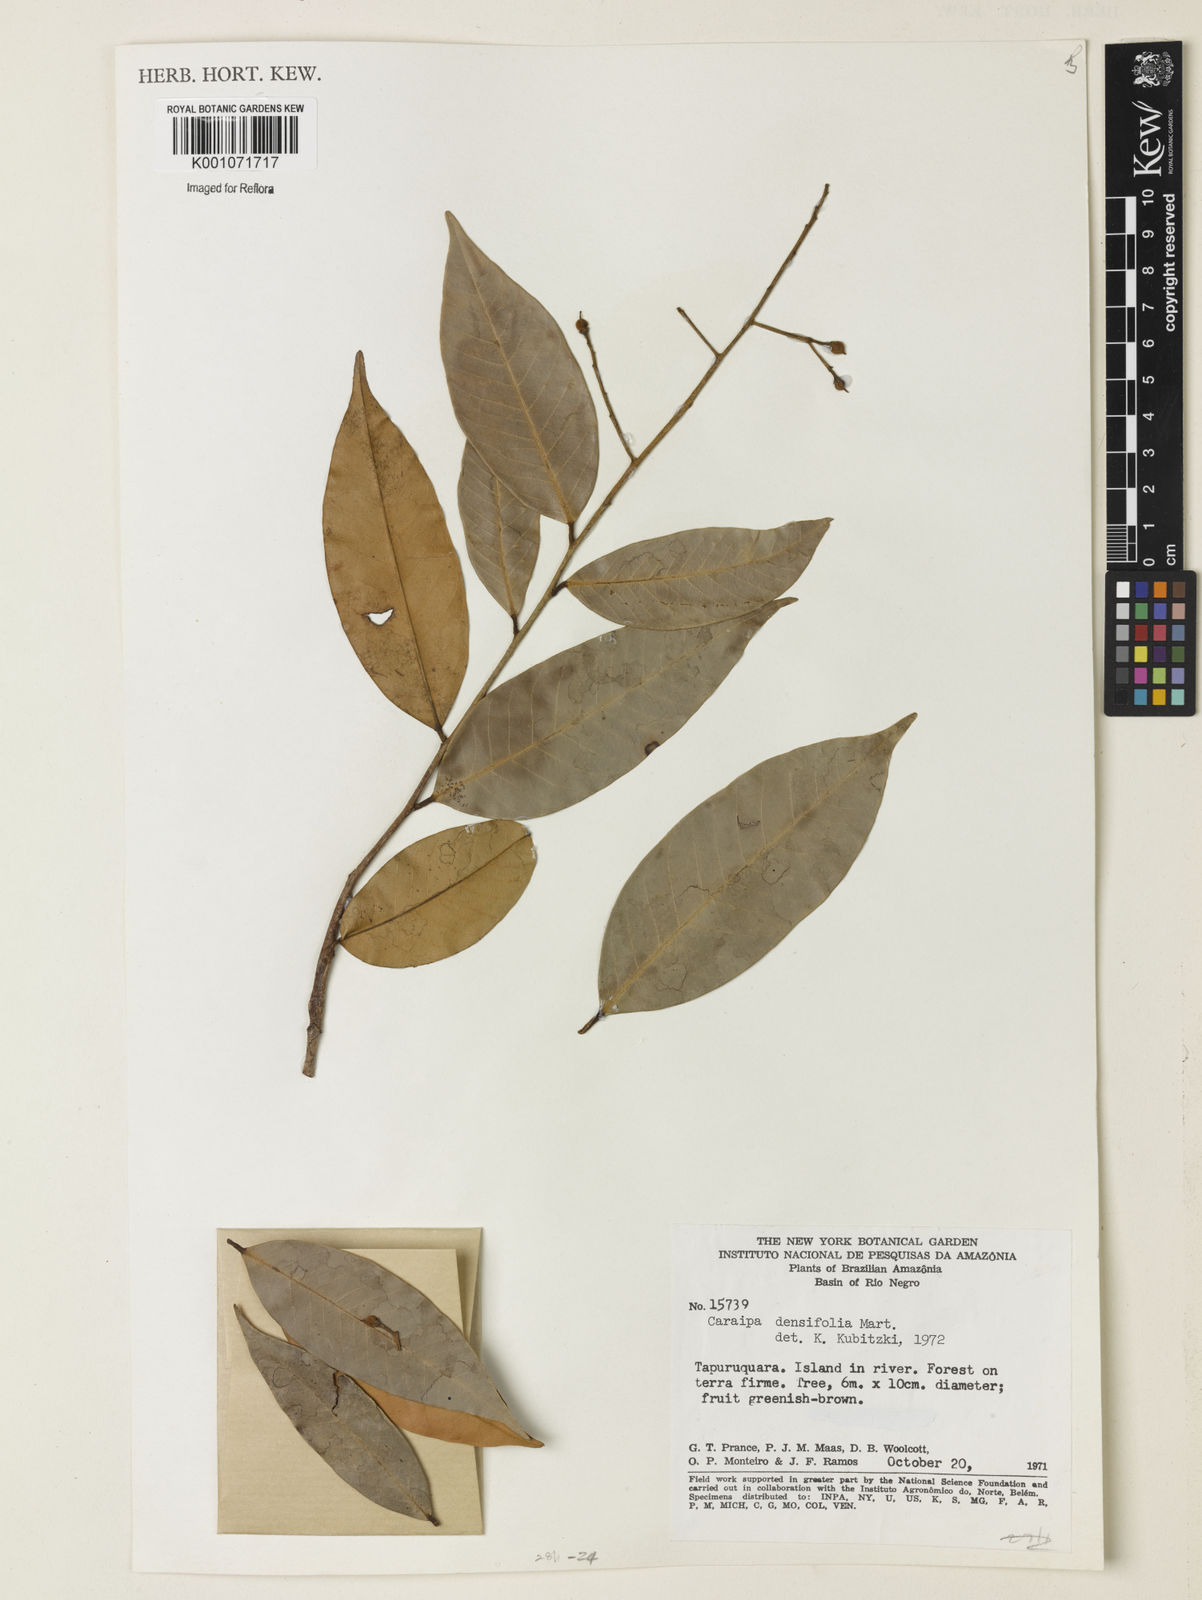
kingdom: Plantae
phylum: Tracheophyta
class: Magnoliopsida
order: Malpighiales
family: Calophyllaceae
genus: Caraipa
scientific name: Caraipa densifolia
